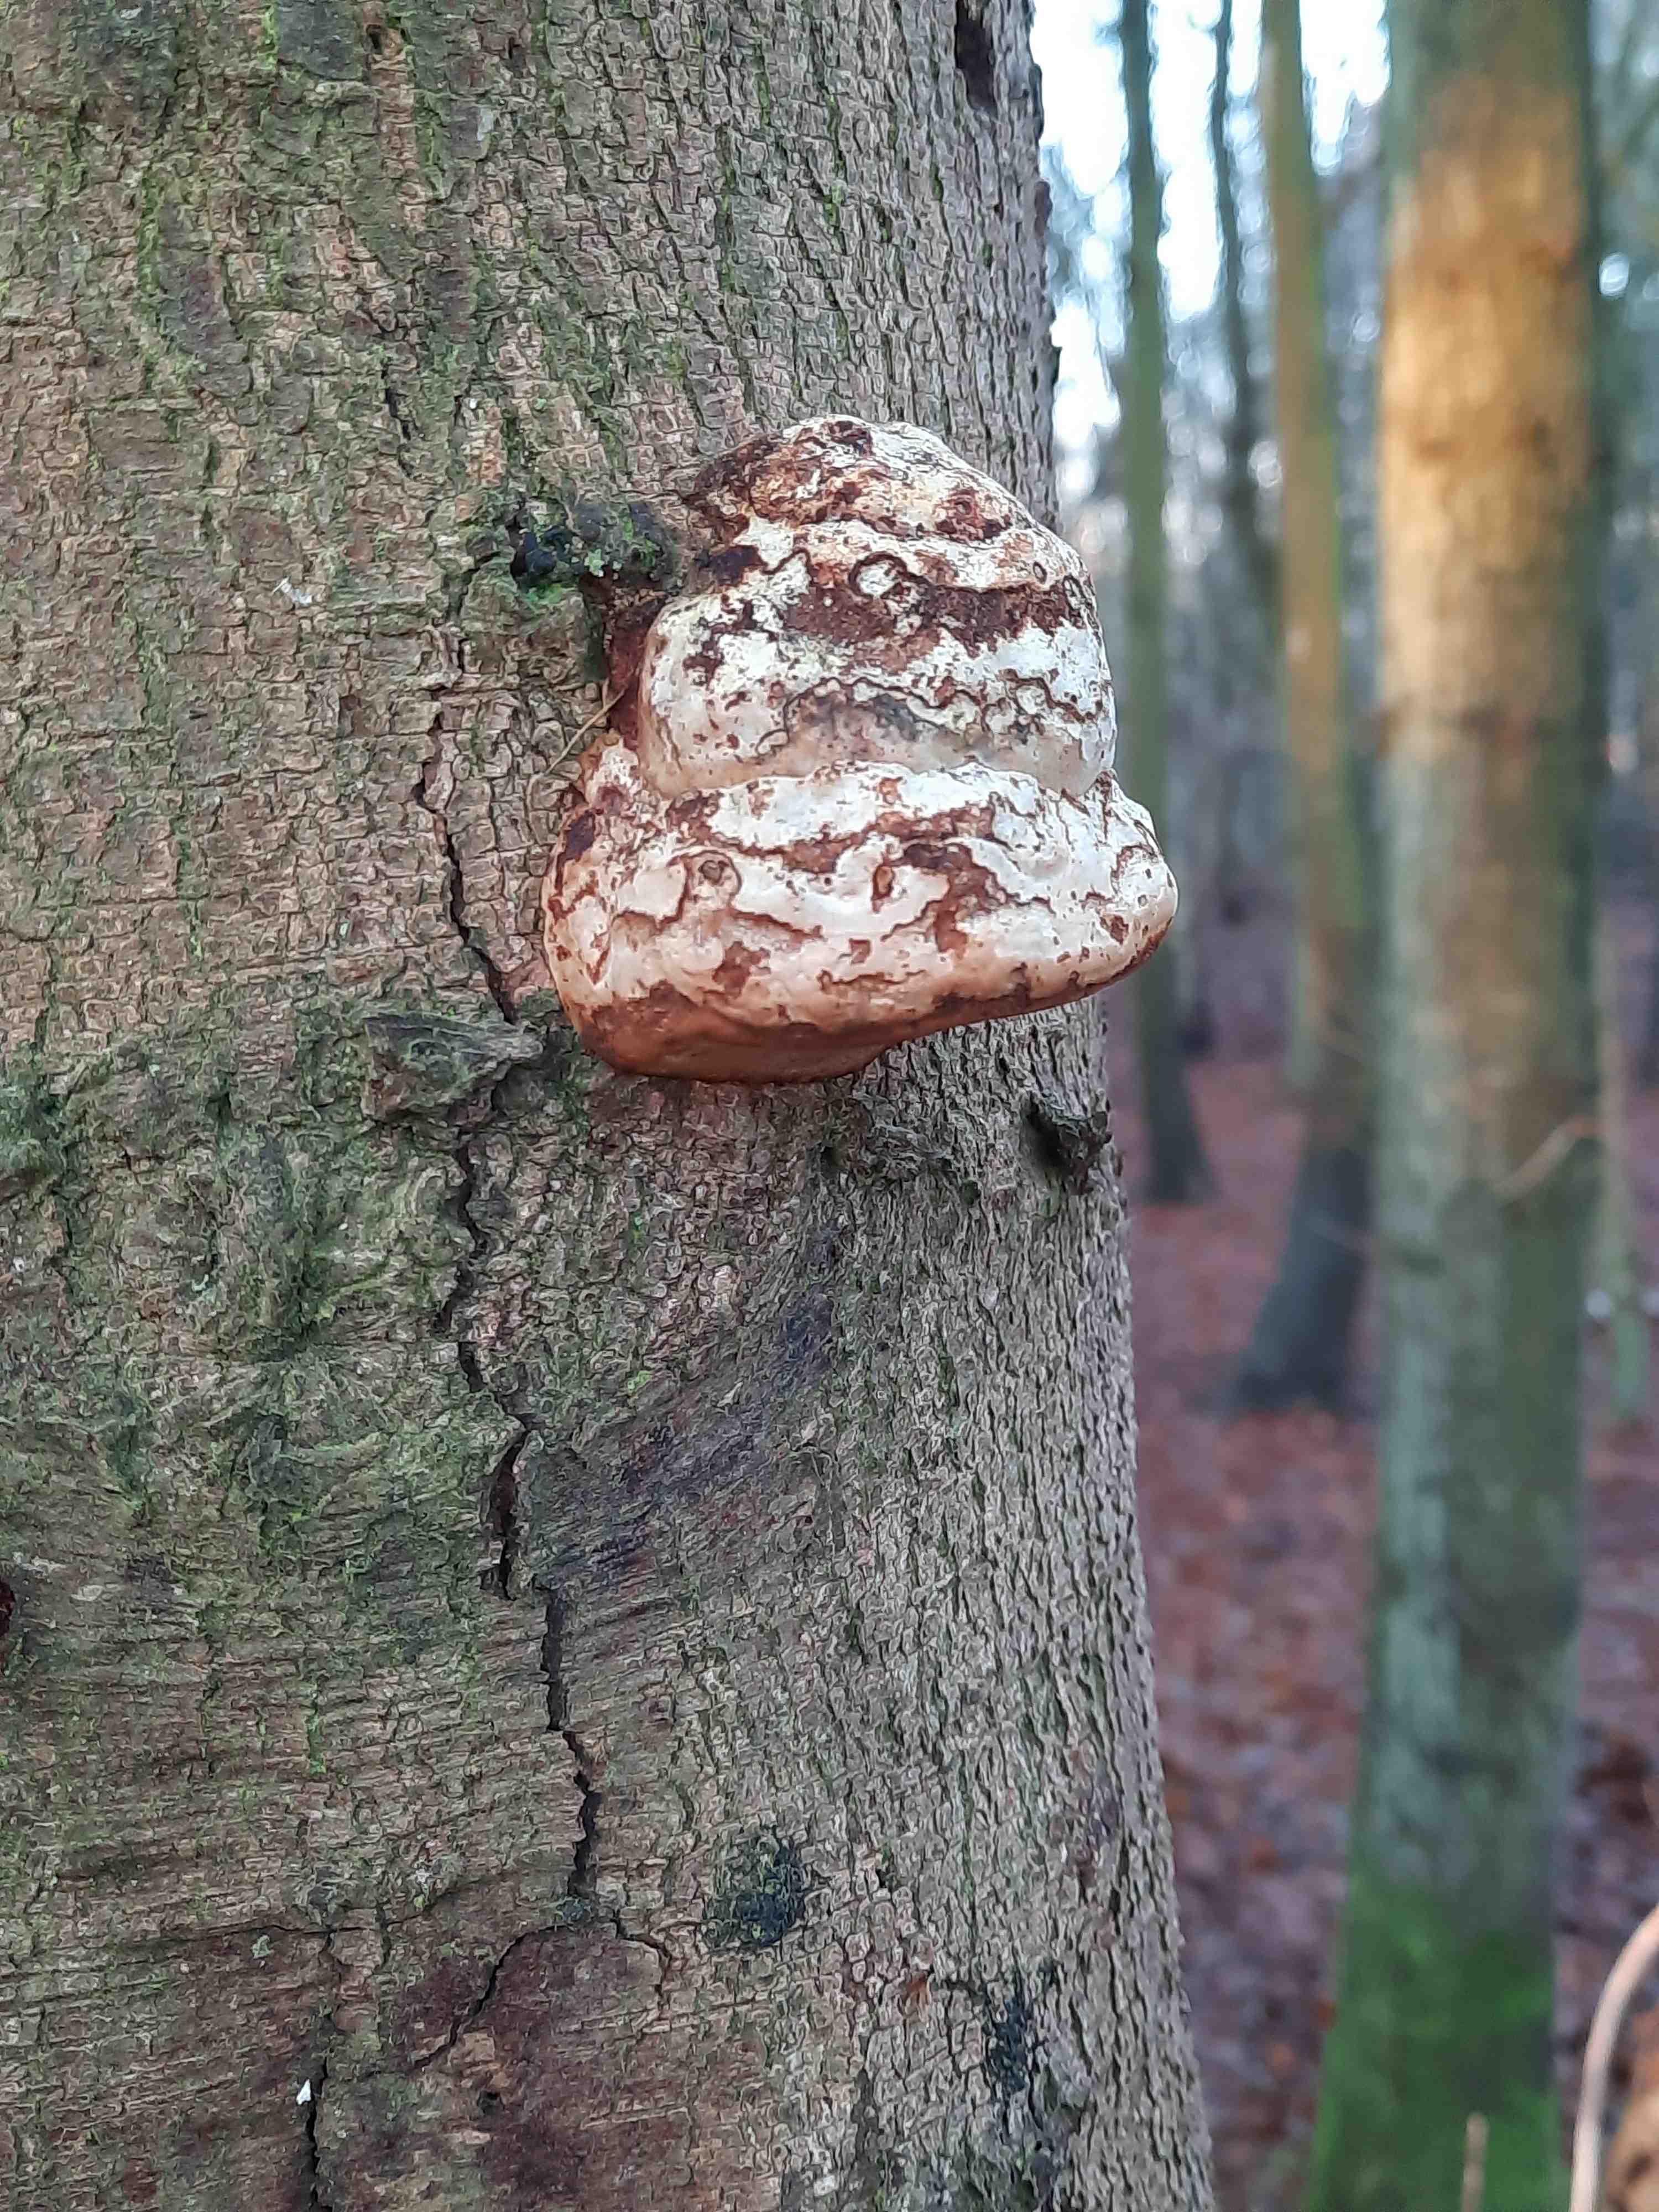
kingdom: Fungi
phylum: Basidiomycota
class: Agaricomycetes
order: Polyporales
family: Polyporaceae
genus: Fomes
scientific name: Fomes fomentarius
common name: tøndersvamp
